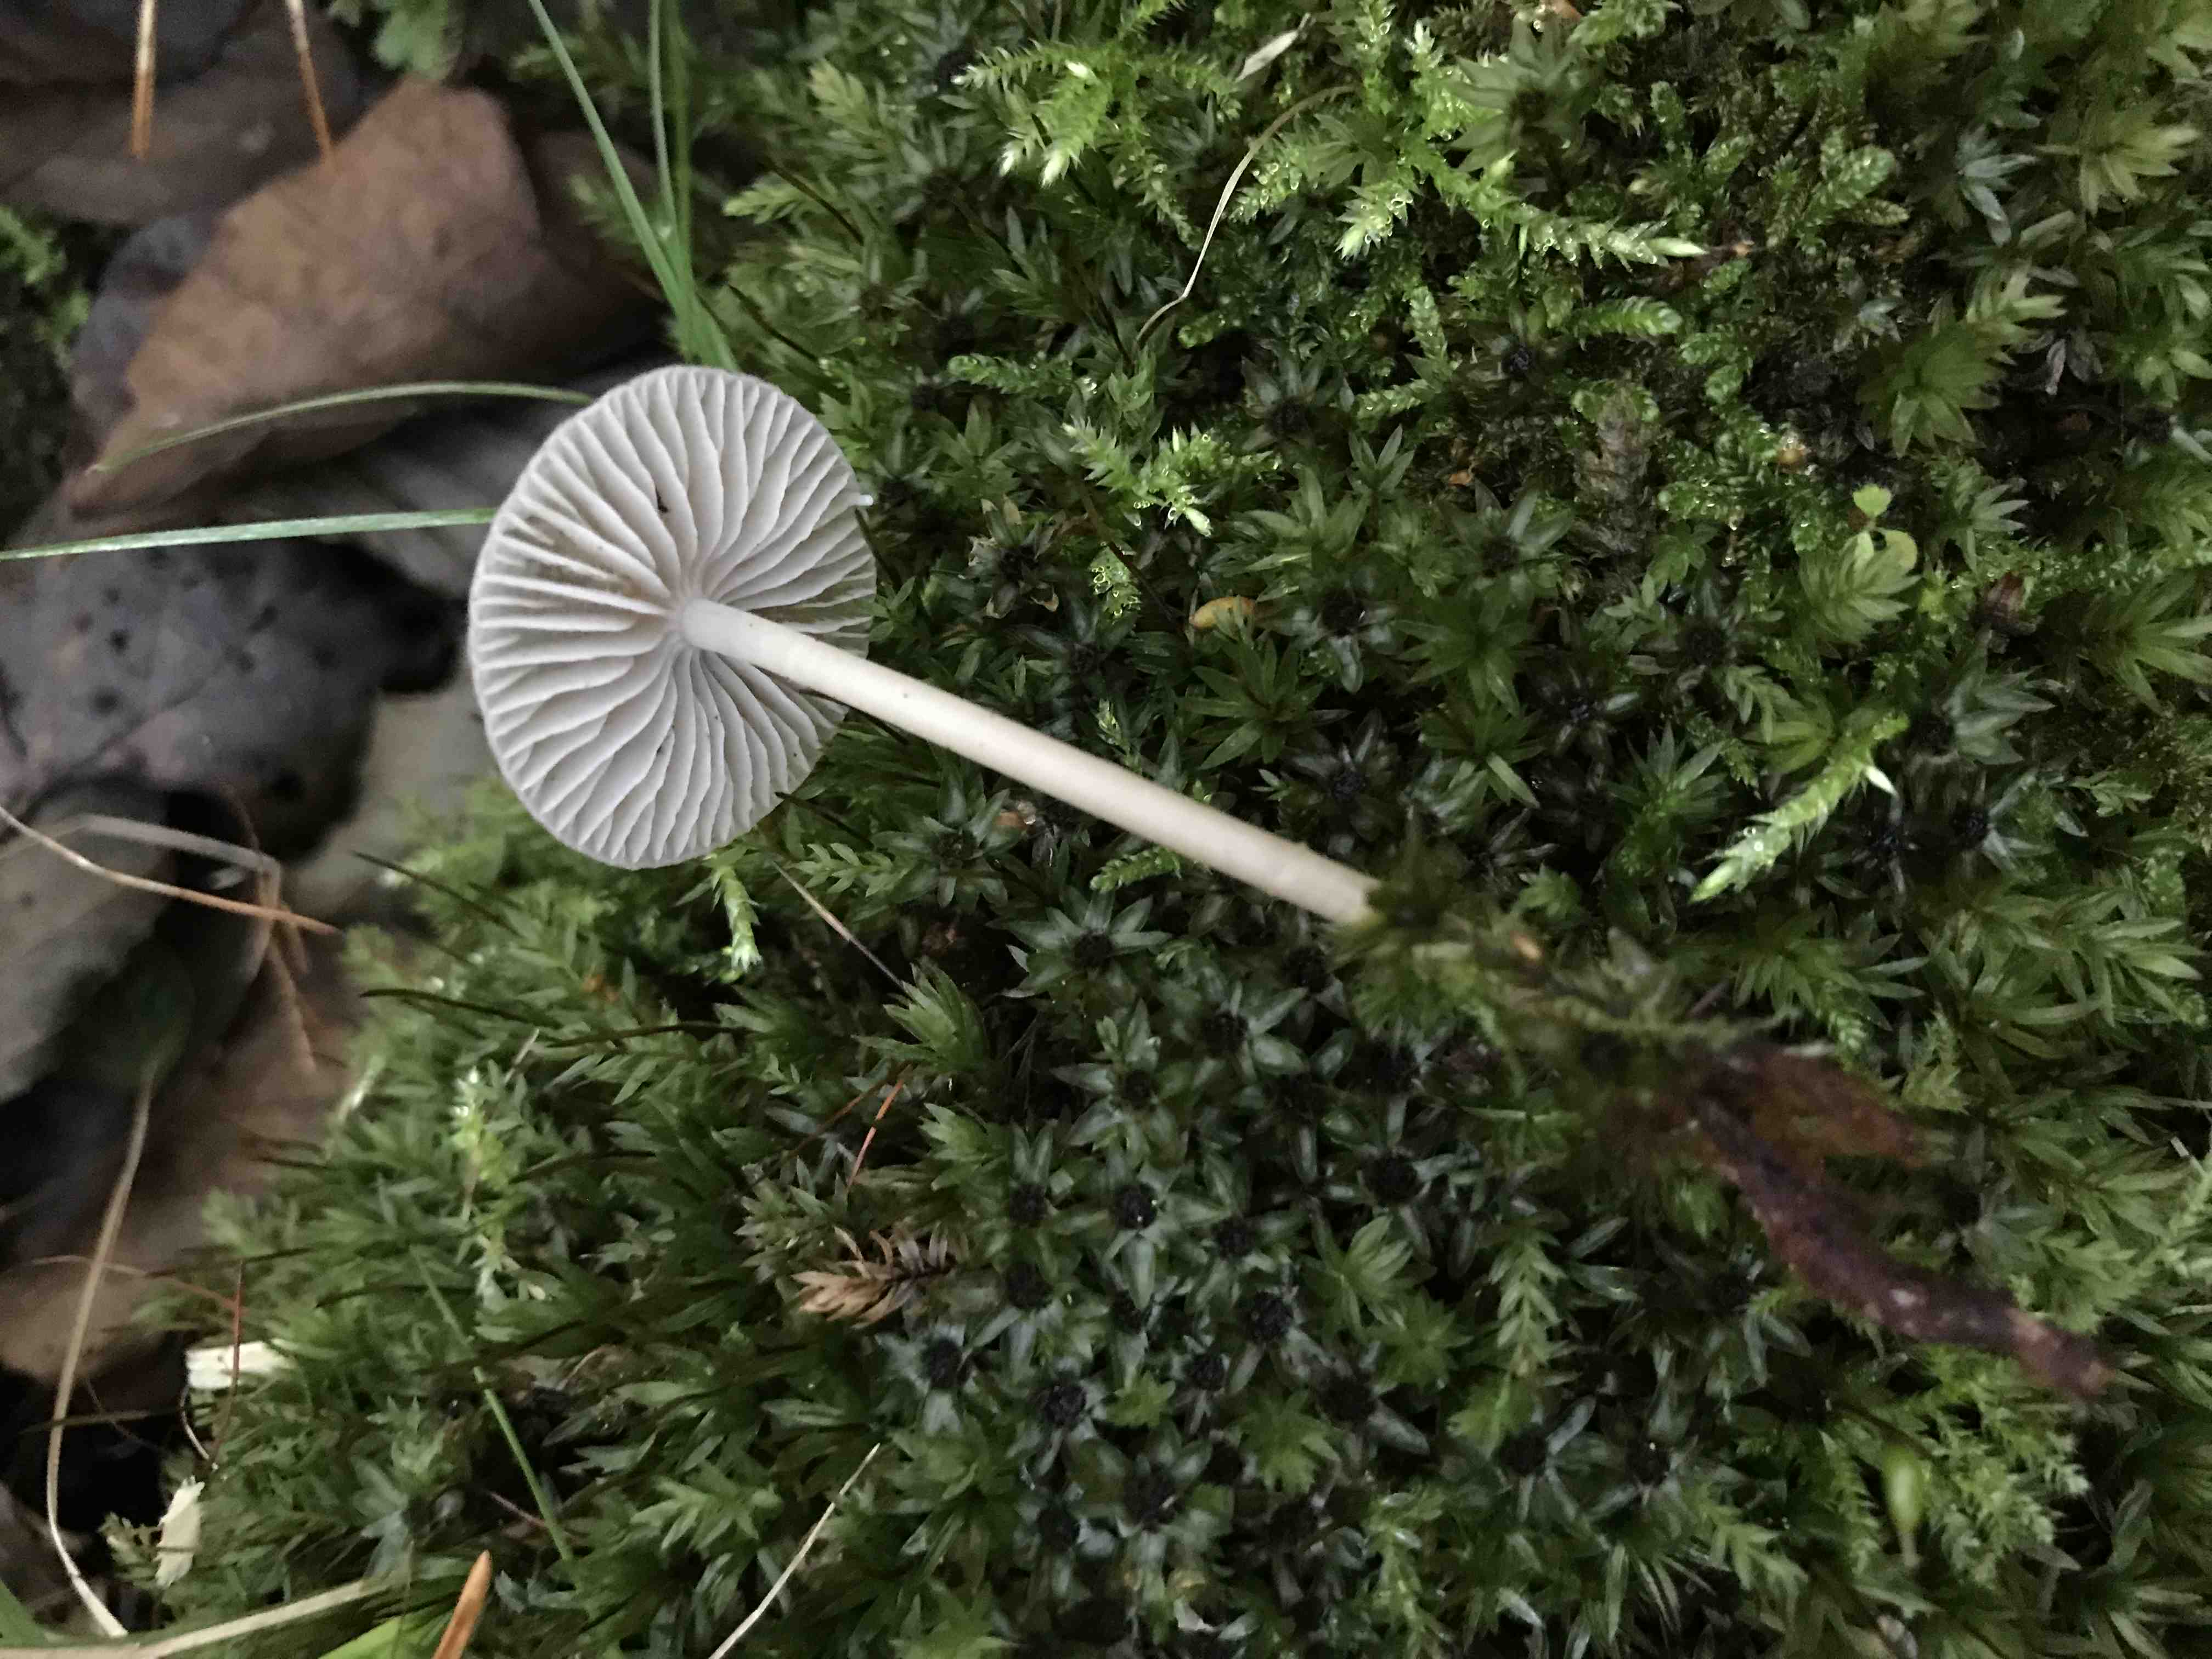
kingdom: Fungi
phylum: Basidiomycota
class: Agaricomycetes
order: Agaricales
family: Mycenaceae
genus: Mycena
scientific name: Mycena
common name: huesvamp
